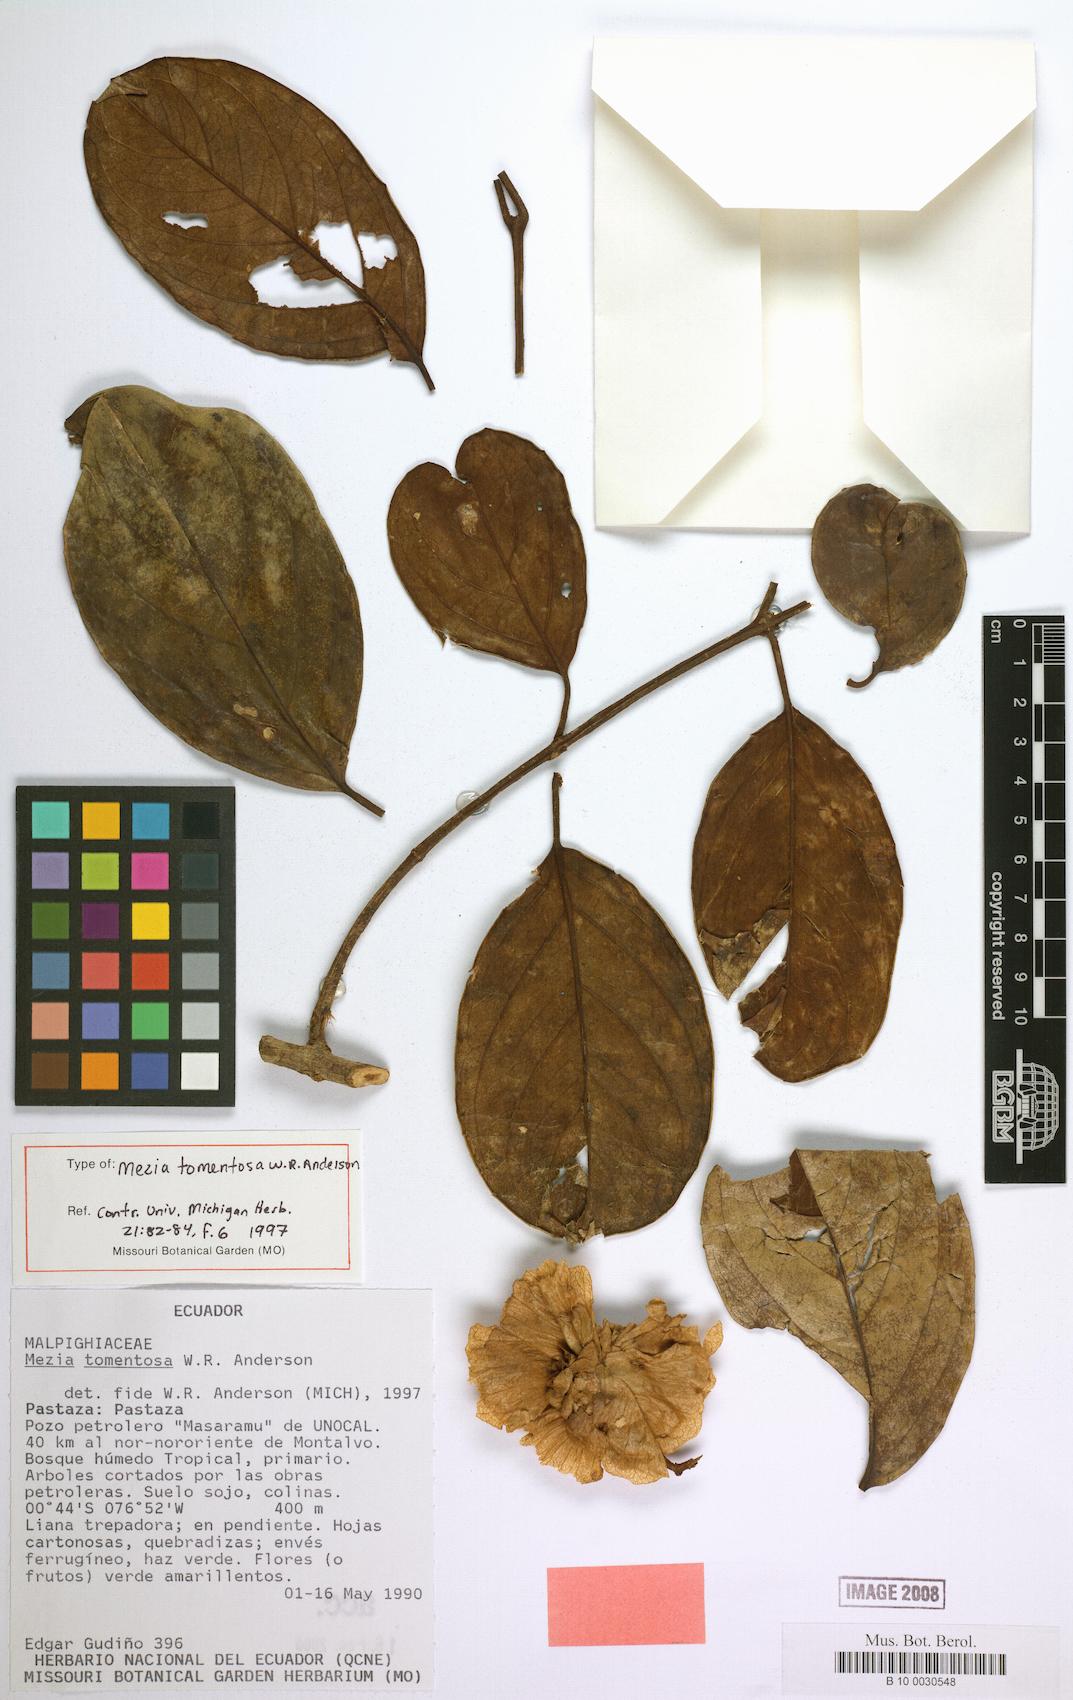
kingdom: Plantae
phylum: Tracheophyta
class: Magnoliopsida
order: Malpighiales
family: Malpighiaceae
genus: Mezia
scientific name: Mezia tomentosa
